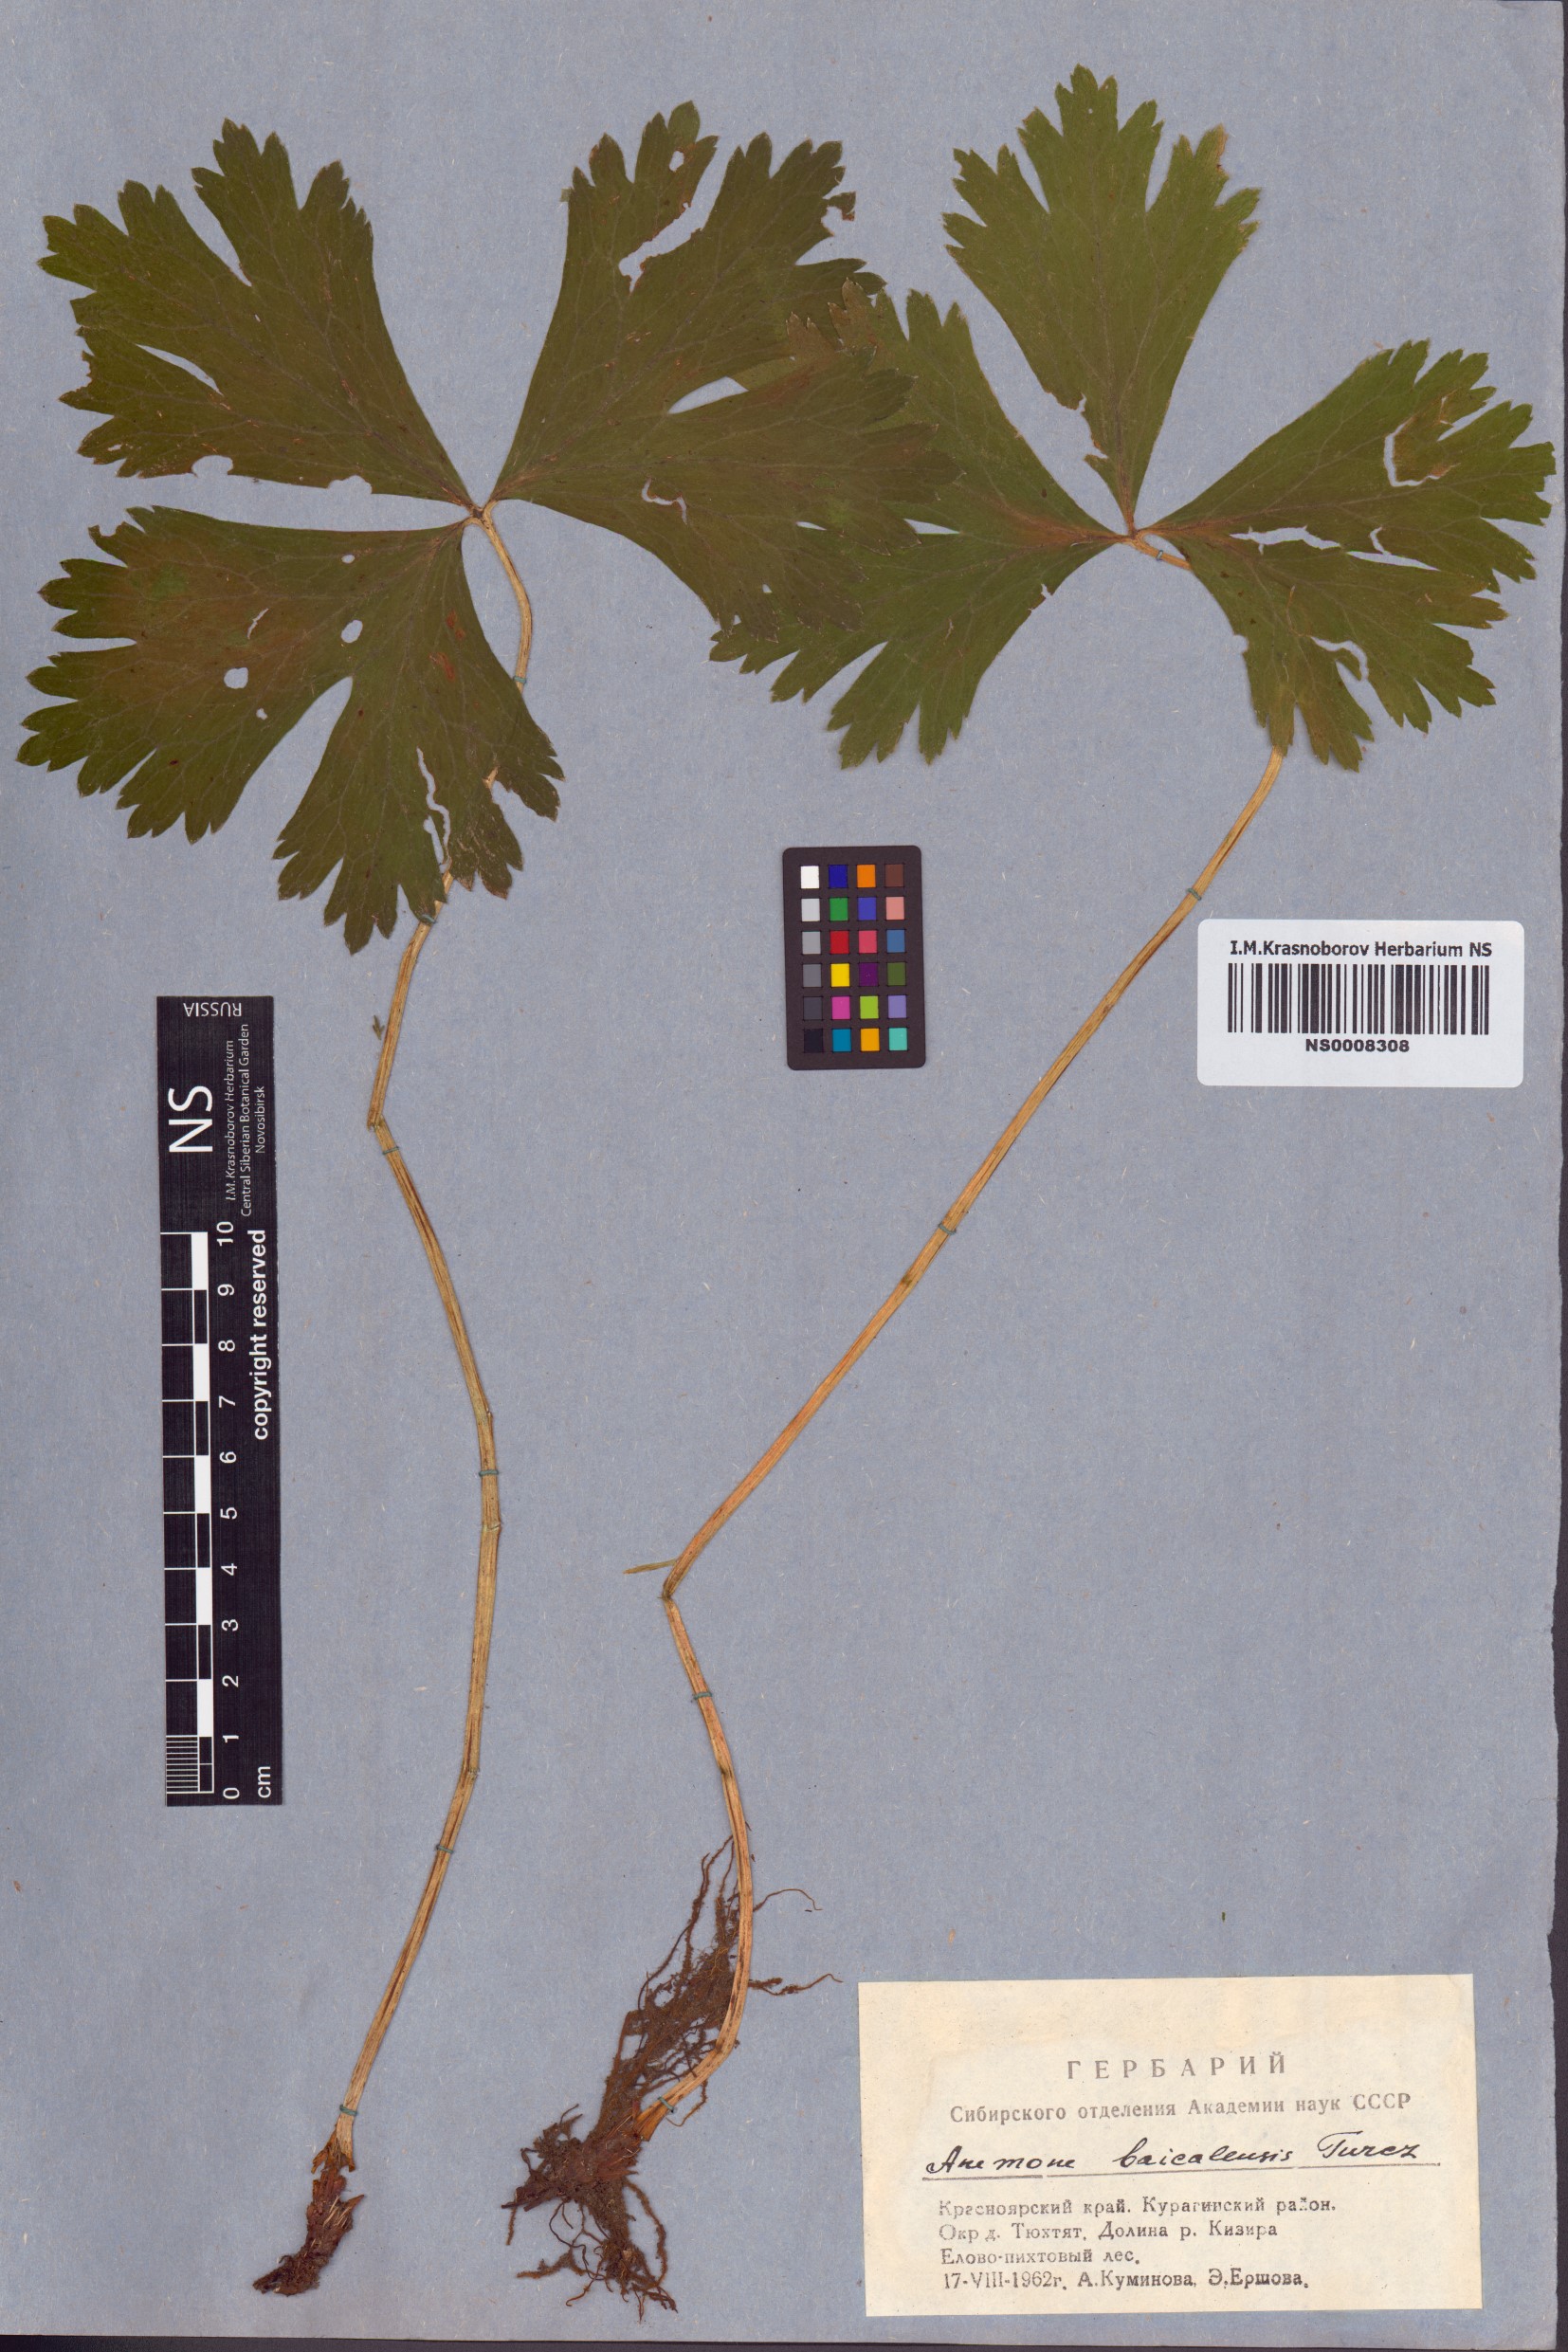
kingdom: Plantae
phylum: Tracheophyta
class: Magnoliopsida
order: Ranunculales
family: Ranunculaceae
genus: Anemonastrum
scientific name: Anemonastrum baicalense
